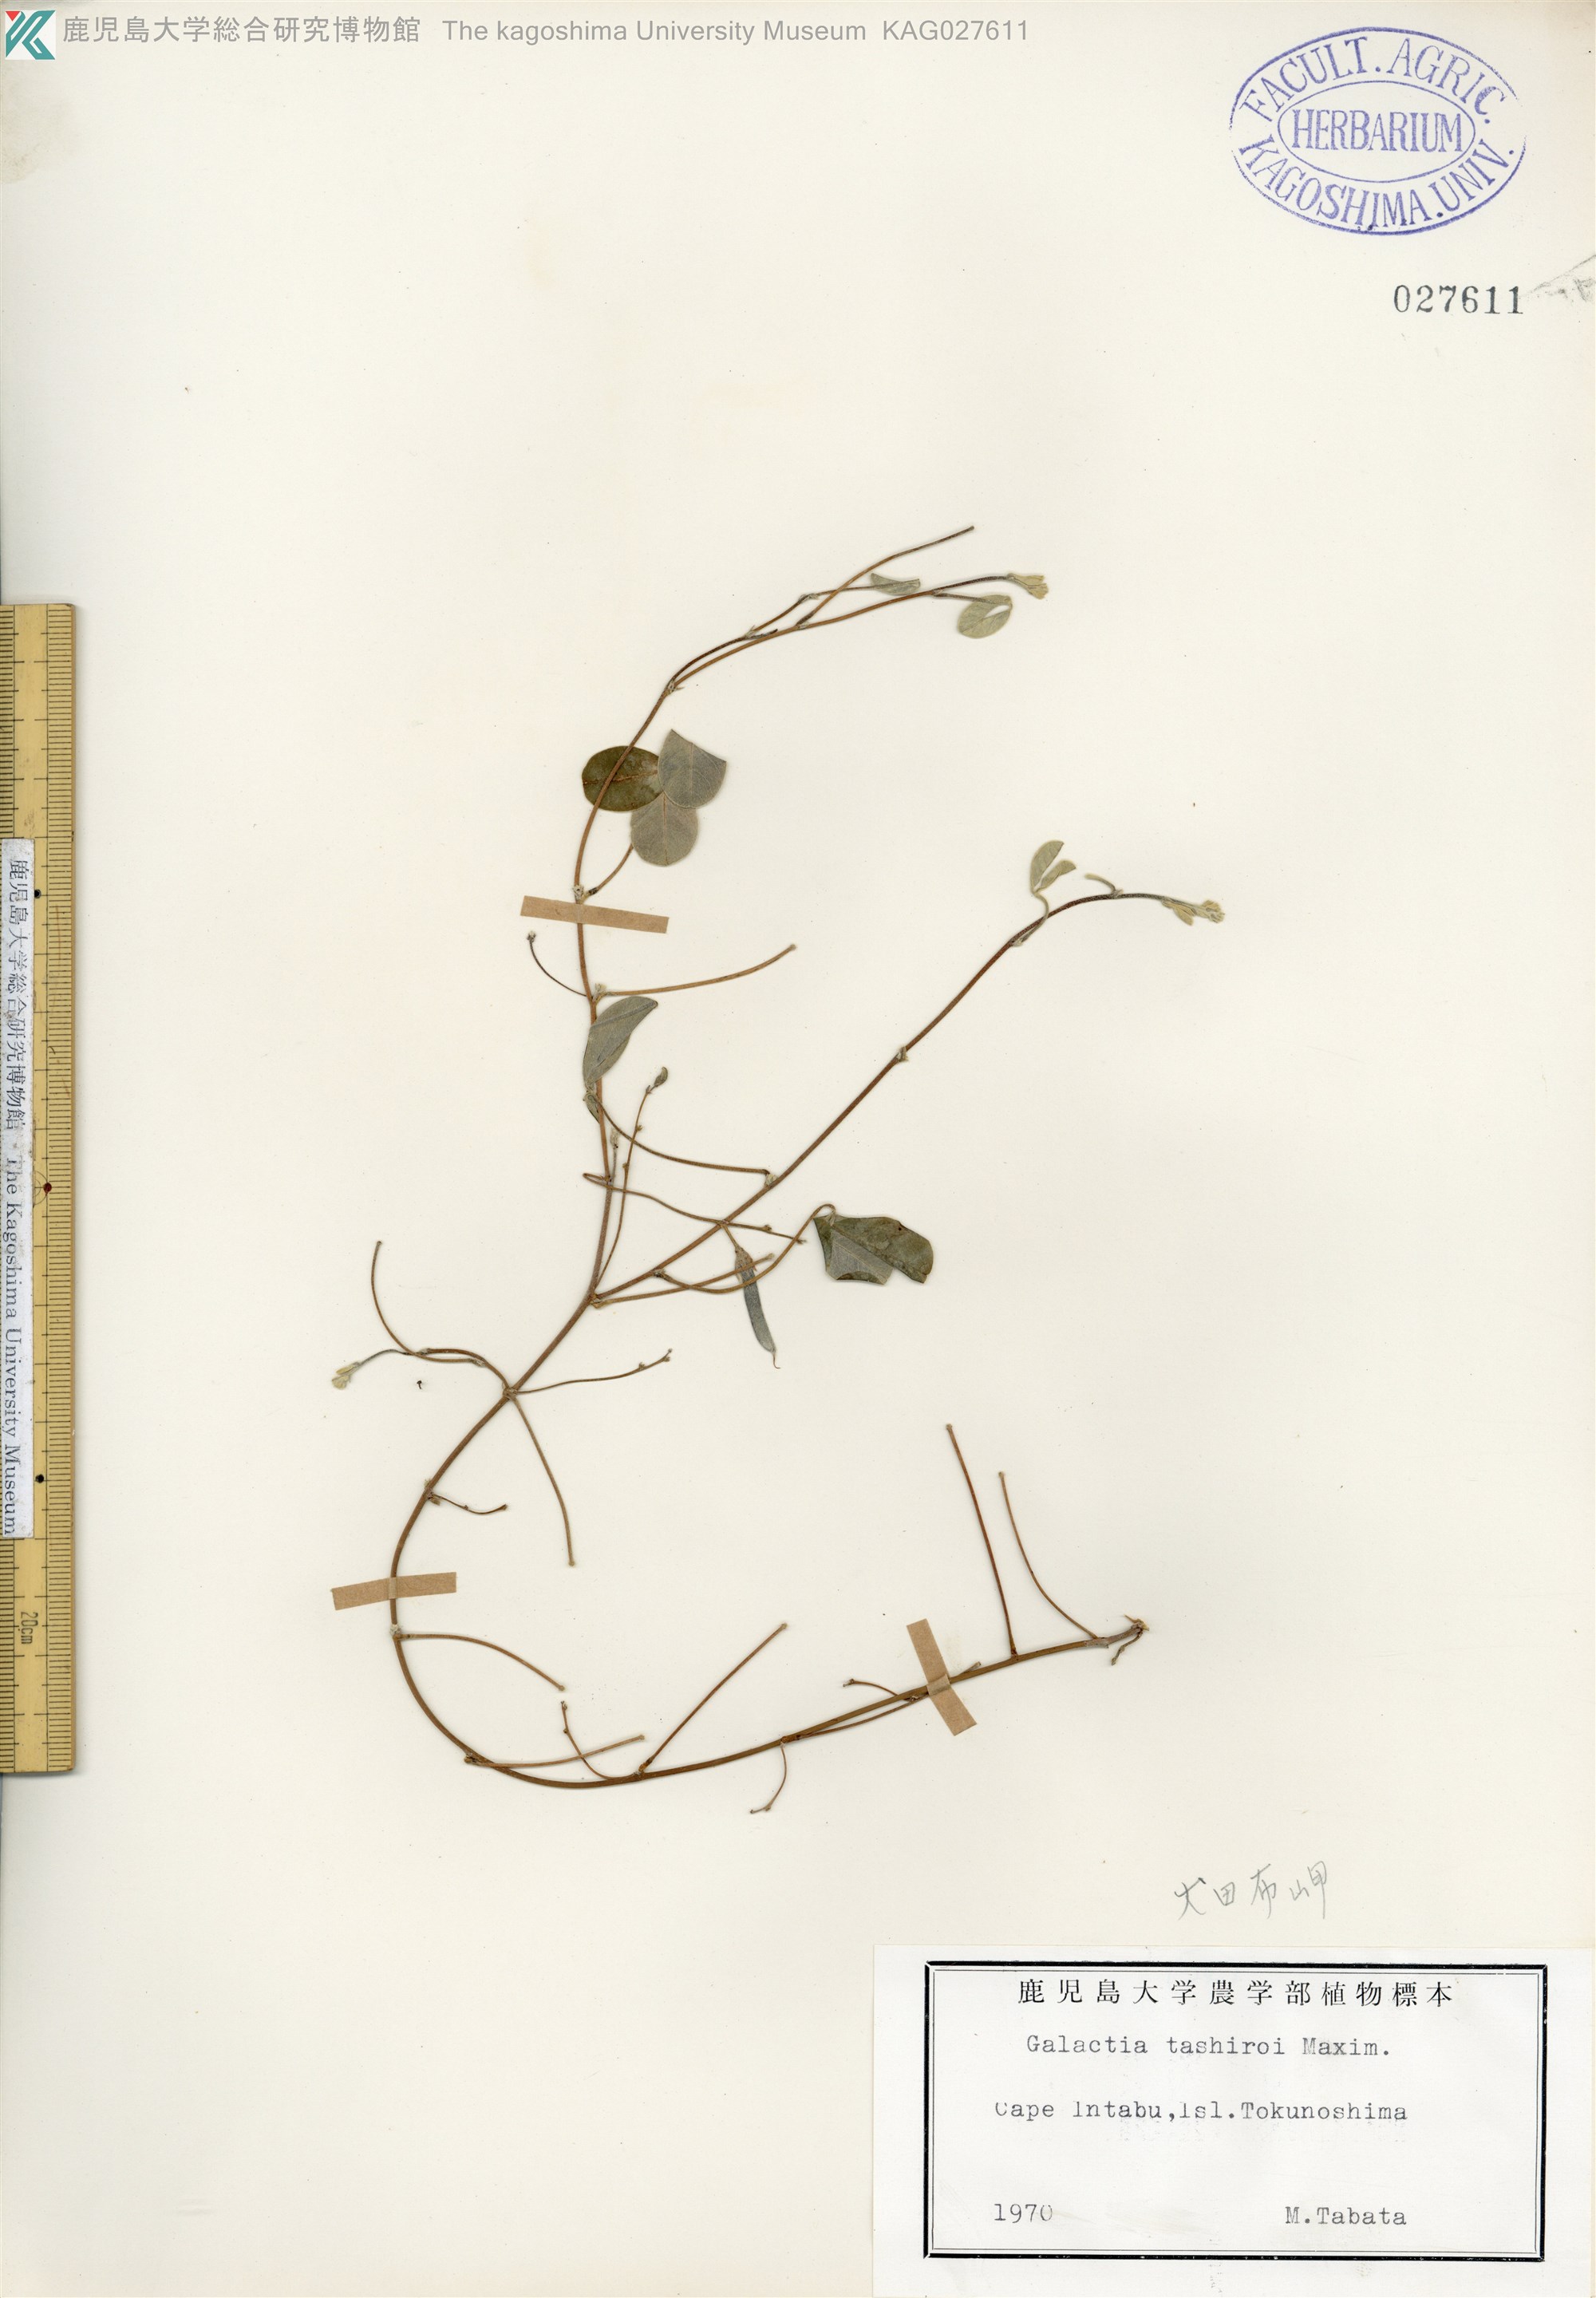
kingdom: Plantae
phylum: Tracheophyta
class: Magnoliopsida
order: Fabales
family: Fabaceae
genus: Galactia
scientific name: Galactia tashiroi
